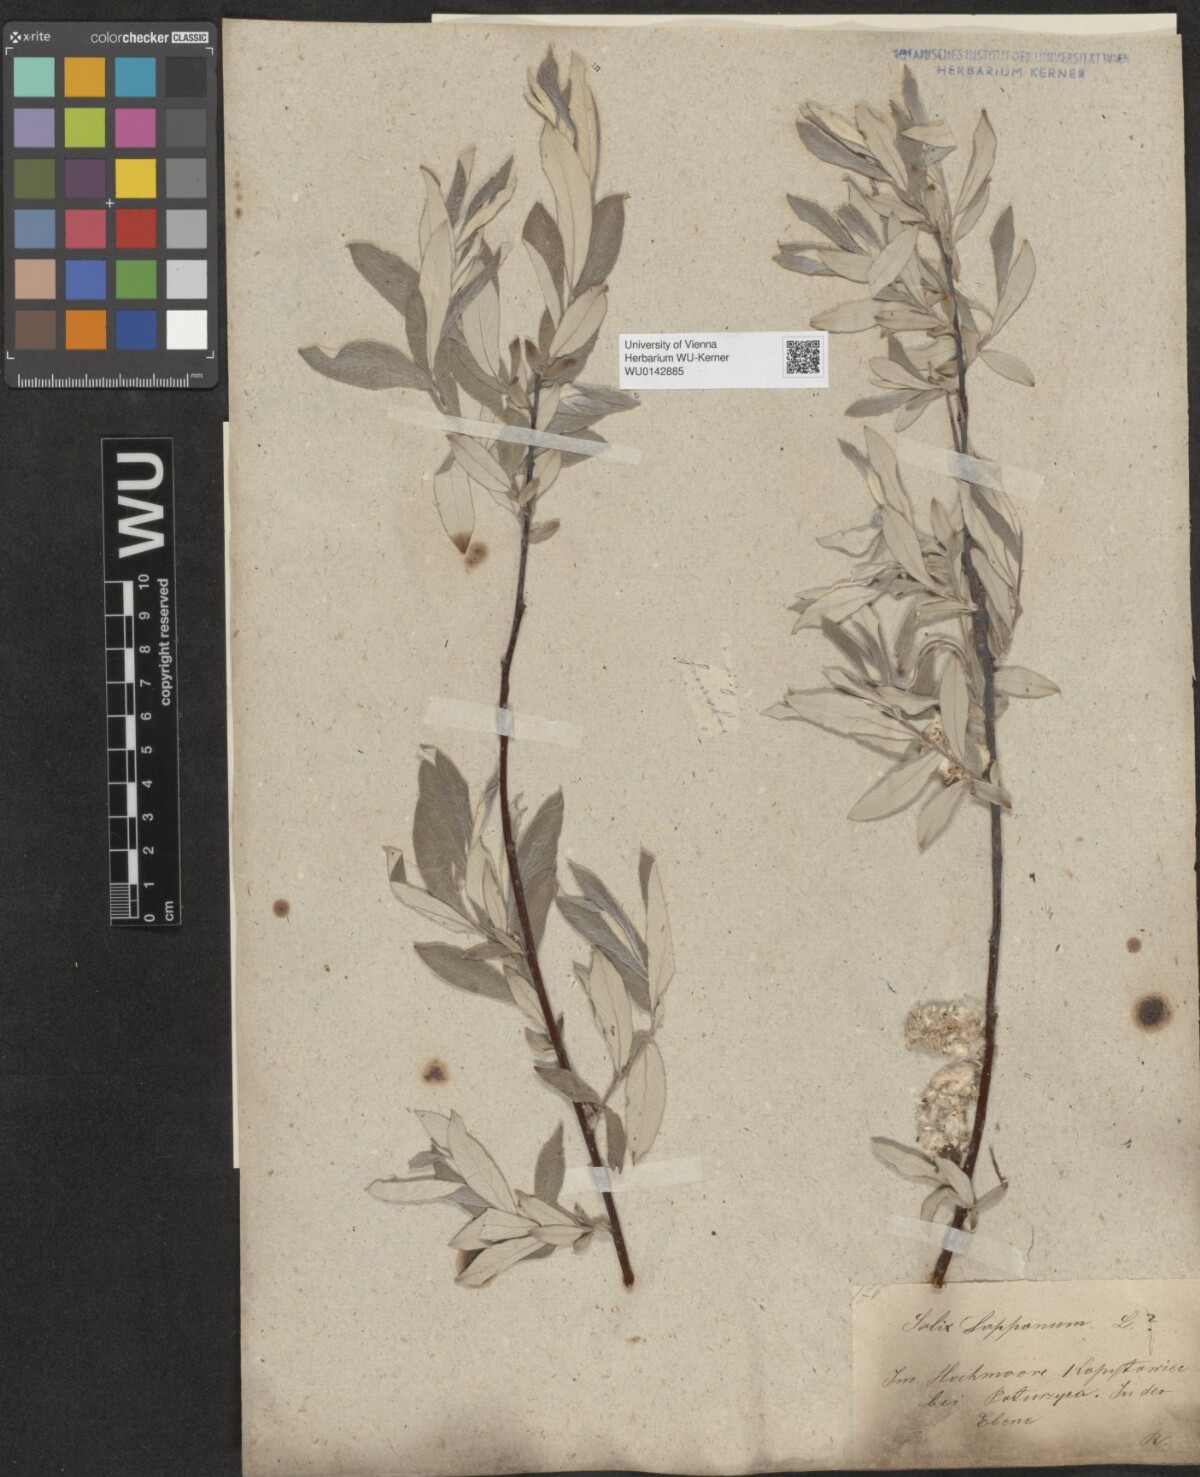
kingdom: Plantae
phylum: Tracheophyta
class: Magnoliopsida
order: Malpighiales
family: Salicaceae
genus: Salix
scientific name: Salix lapponum
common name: Downy willow
